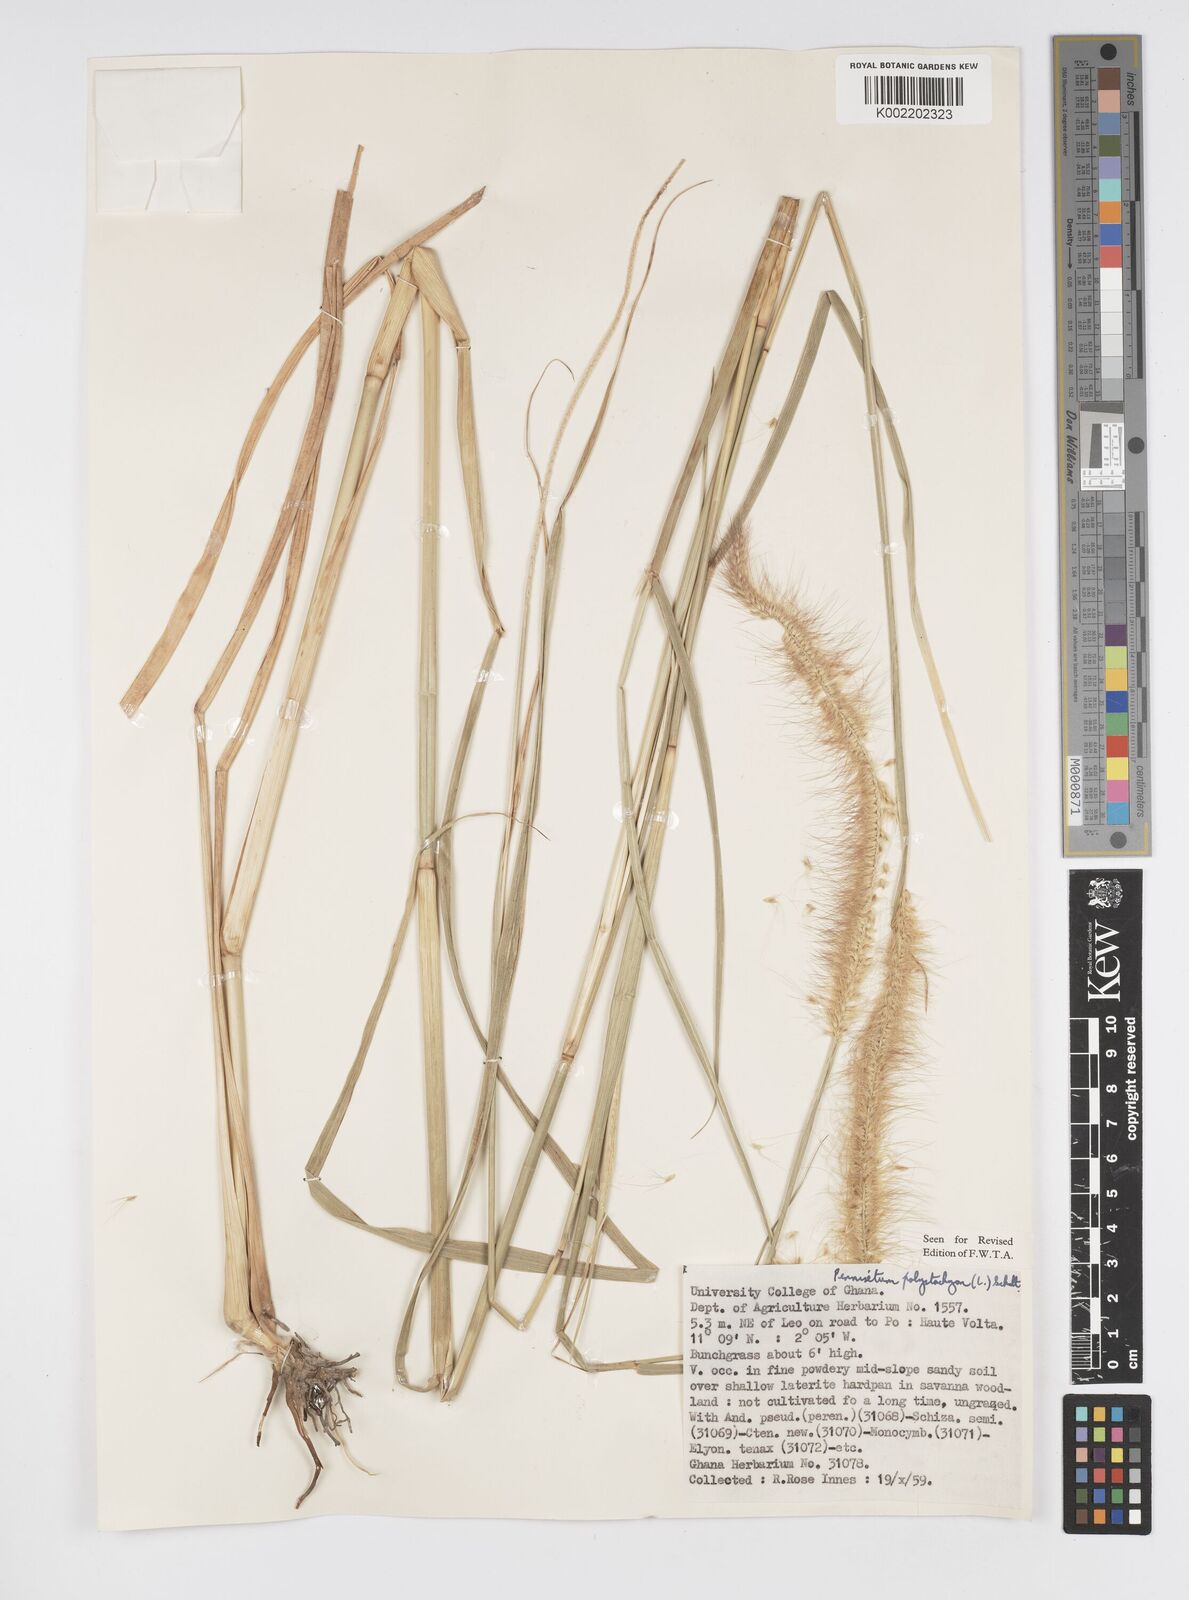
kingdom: Plantae
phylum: Tracheophyta
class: Liliopsida
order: Poales
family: Poaceae
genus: Setaria
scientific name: Setaria parviflora
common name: Knotroot bristle-grass
